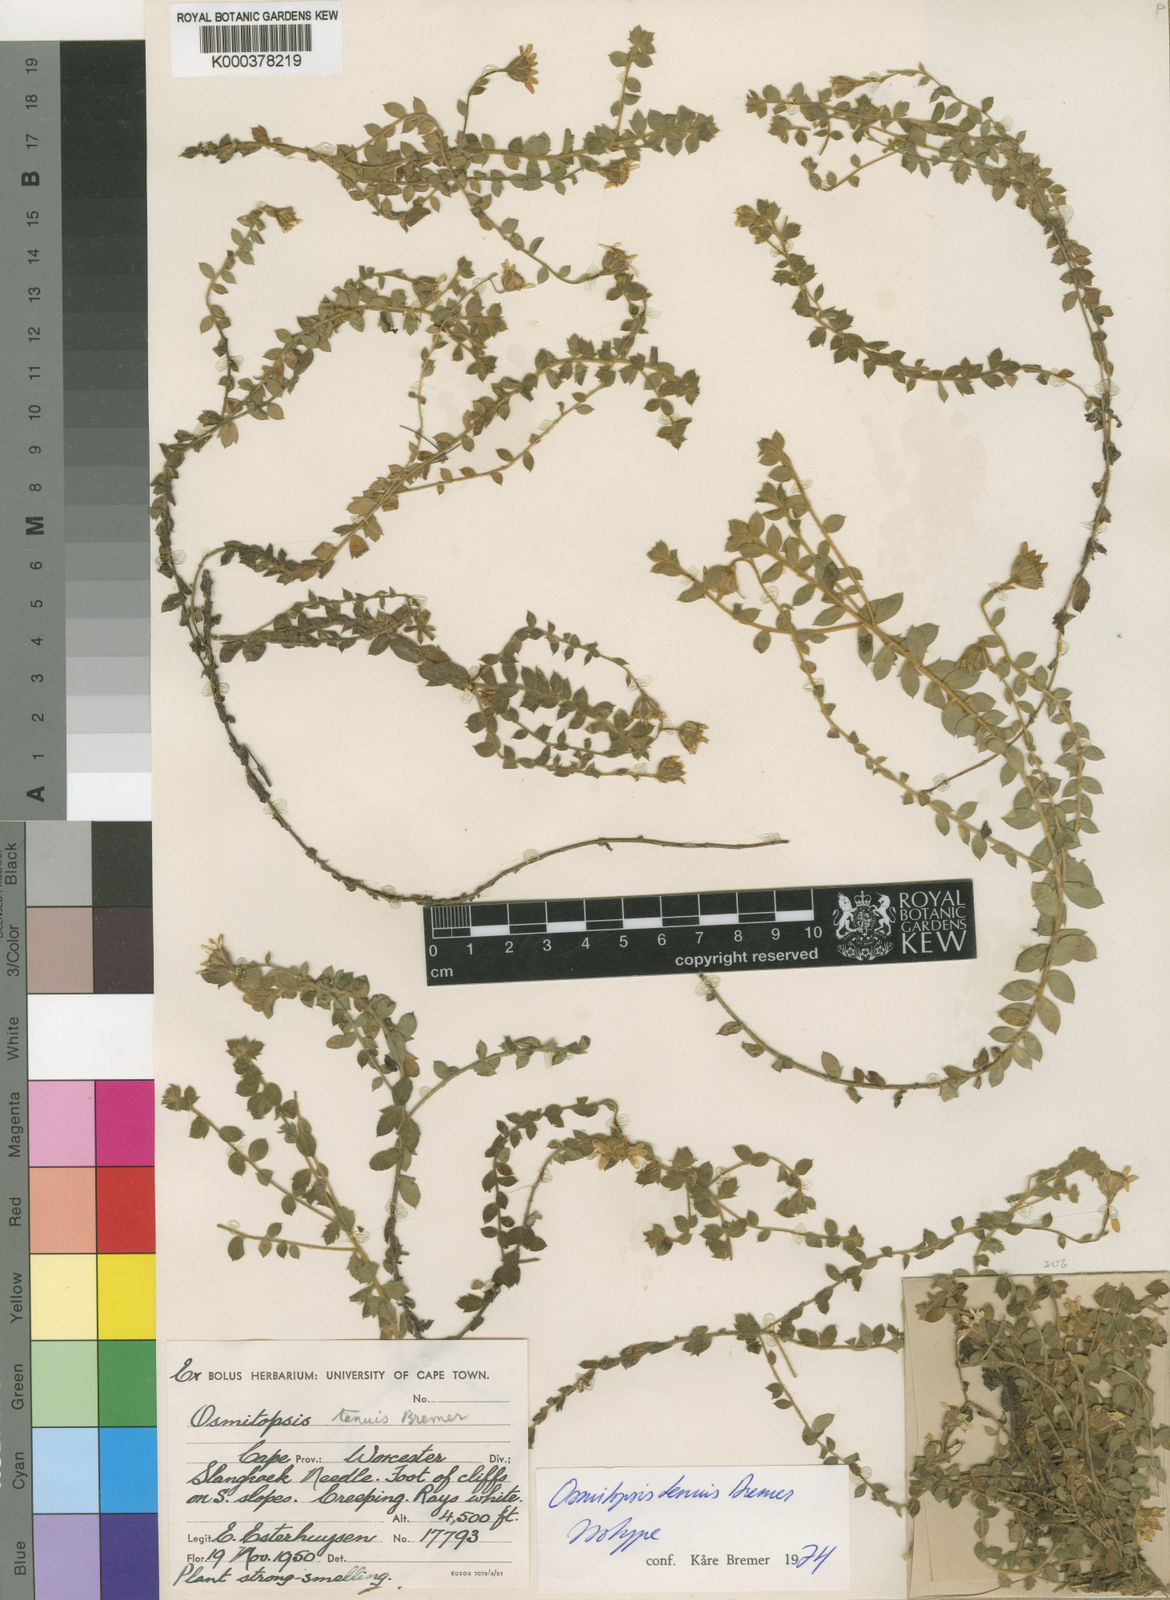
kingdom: Plantae
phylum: Tracheophyta
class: Magnoliopsida
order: Asterales
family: Asteraceae
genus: Osmitopsis
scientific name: Osmitopsis tenuis
